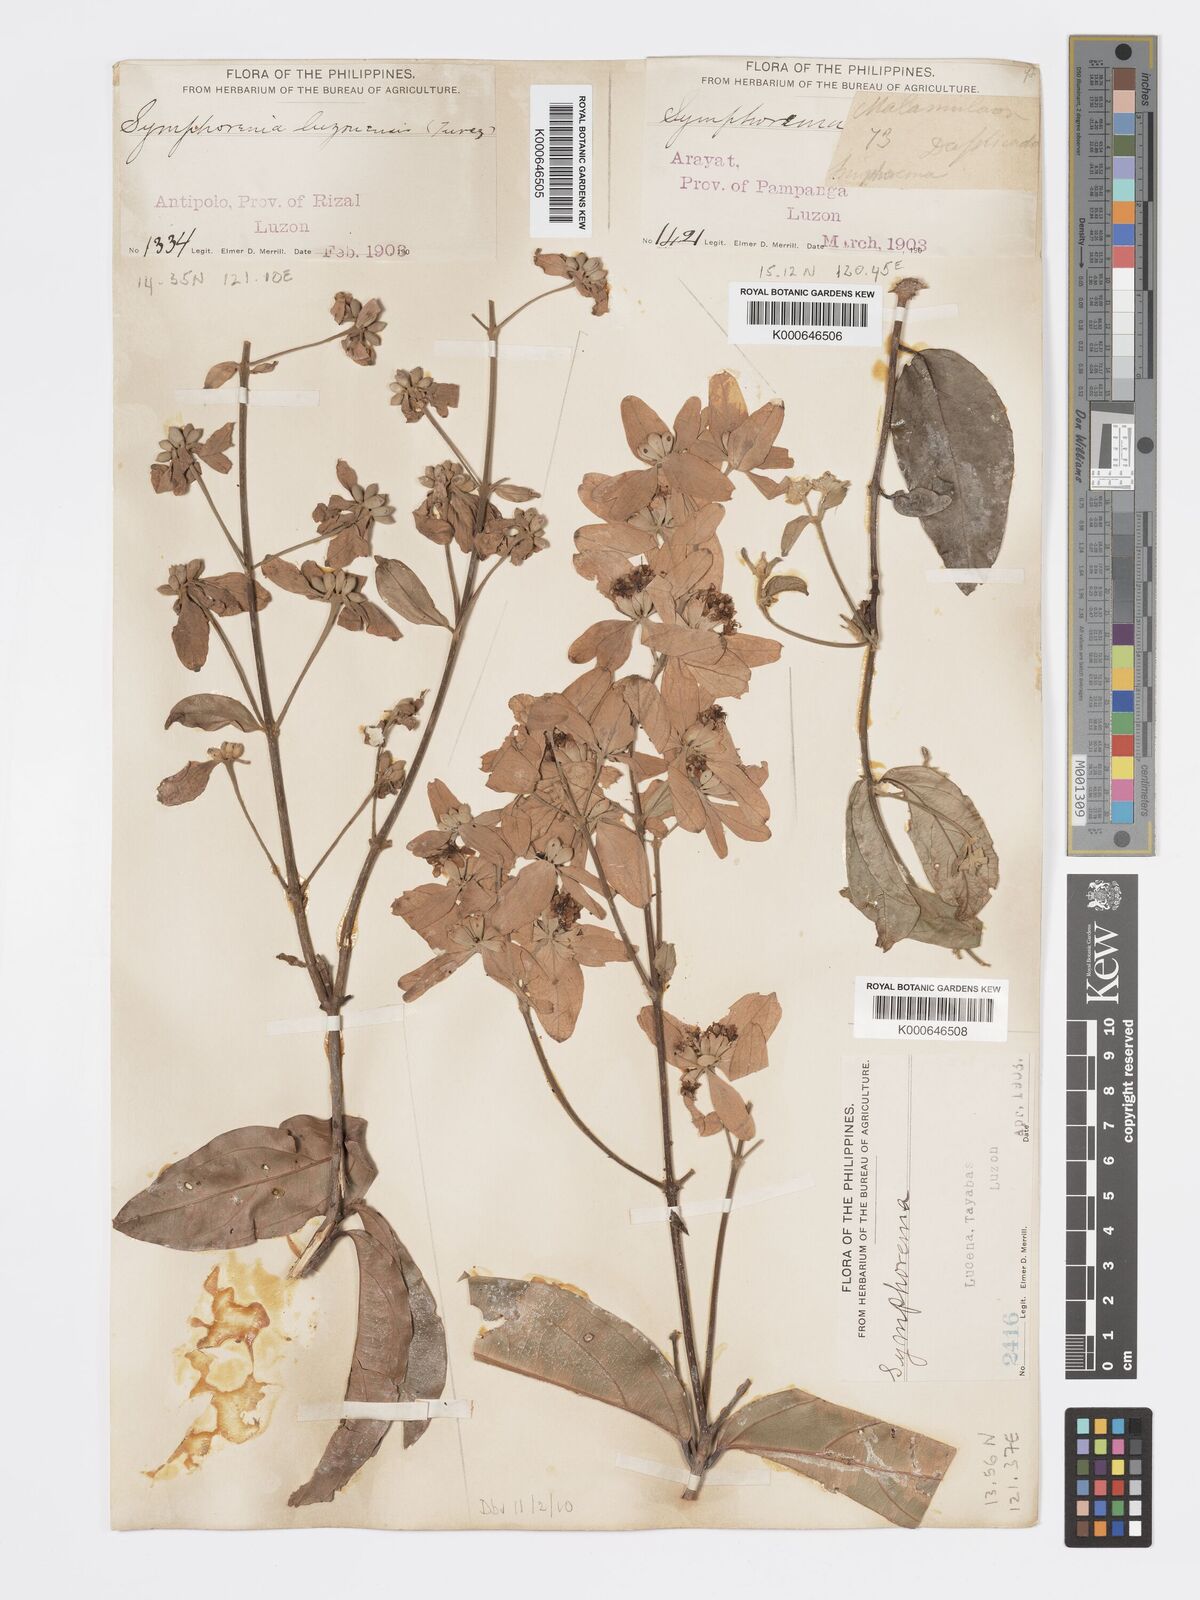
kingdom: Plantae
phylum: Tracheophyta
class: Magnoliopsida
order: Lamiales
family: Lamiaceae
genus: Symphorema
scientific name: Symphorema luzonicum
